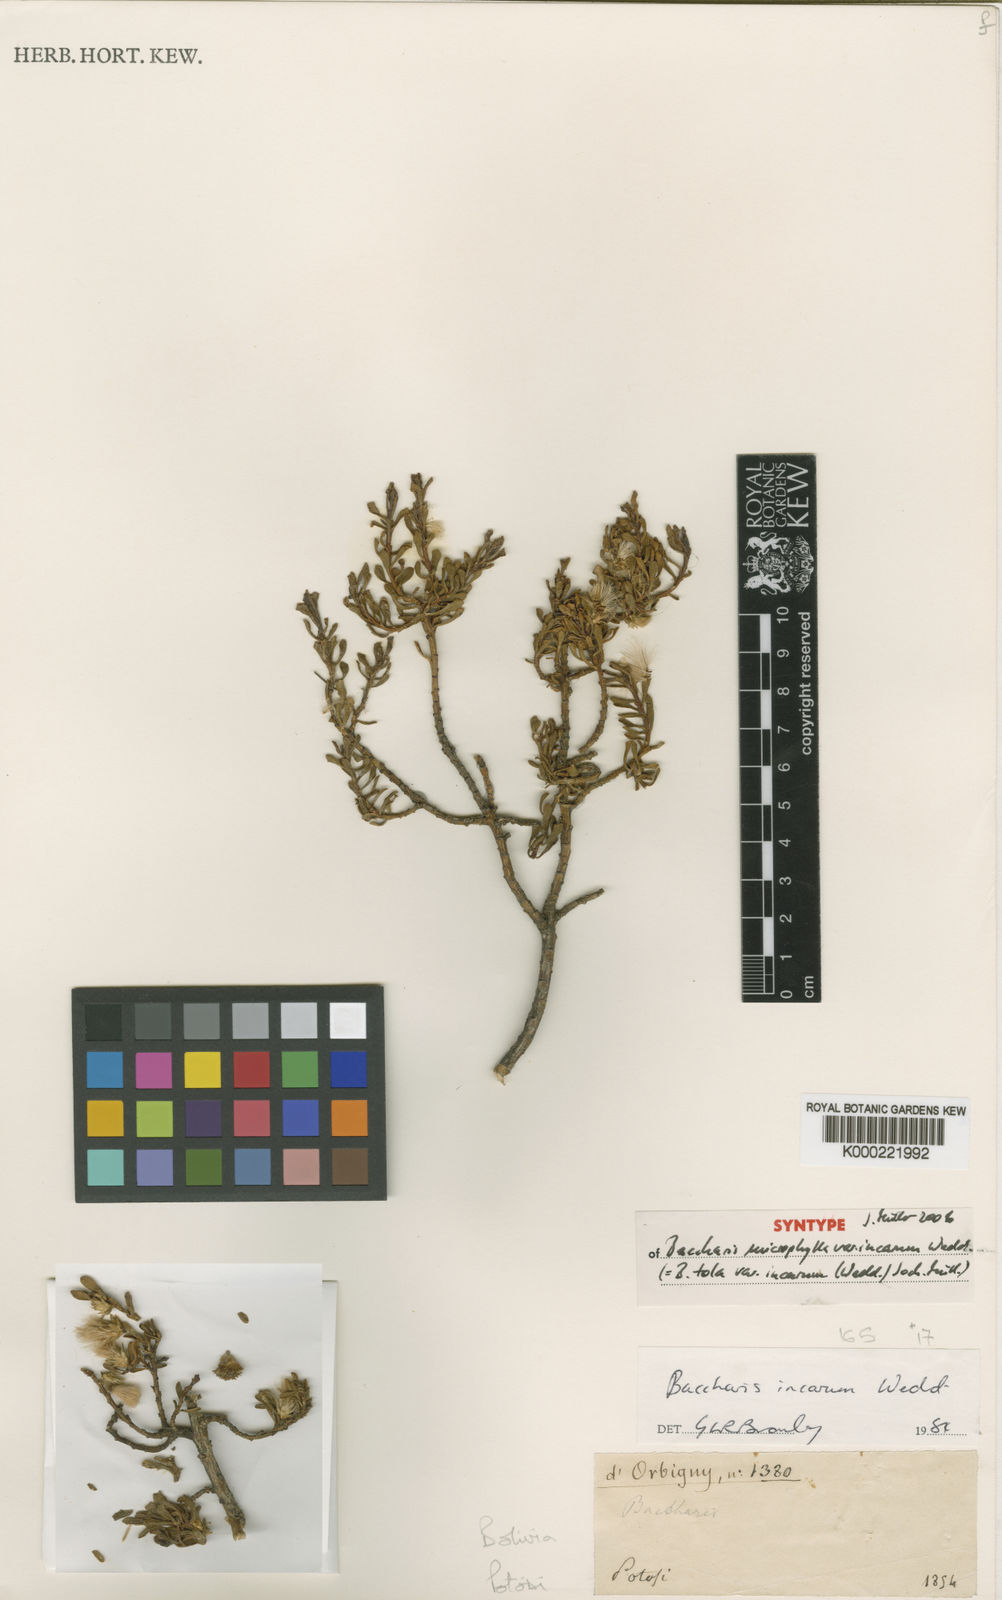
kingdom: Plantae
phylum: Tracheophyta
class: Magnoliopsida
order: Asterales
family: Asteraceae
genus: Baccharis
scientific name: Baccharis tola
